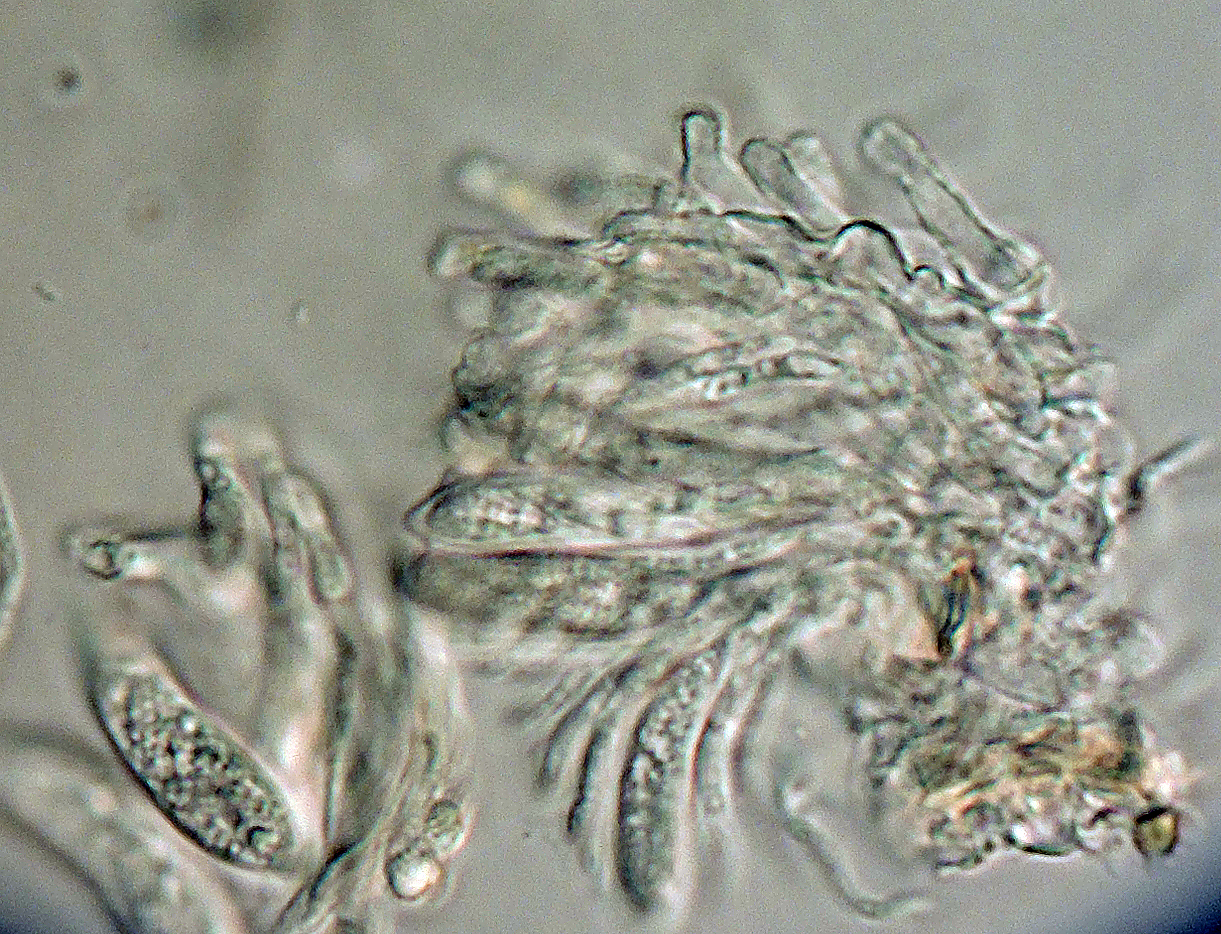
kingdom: Fungi
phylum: Ascomycota
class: Leotiomycetes
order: Helotiales
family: Hyaloscyphaceae
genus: Cistella
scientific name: Cistella fugiens
